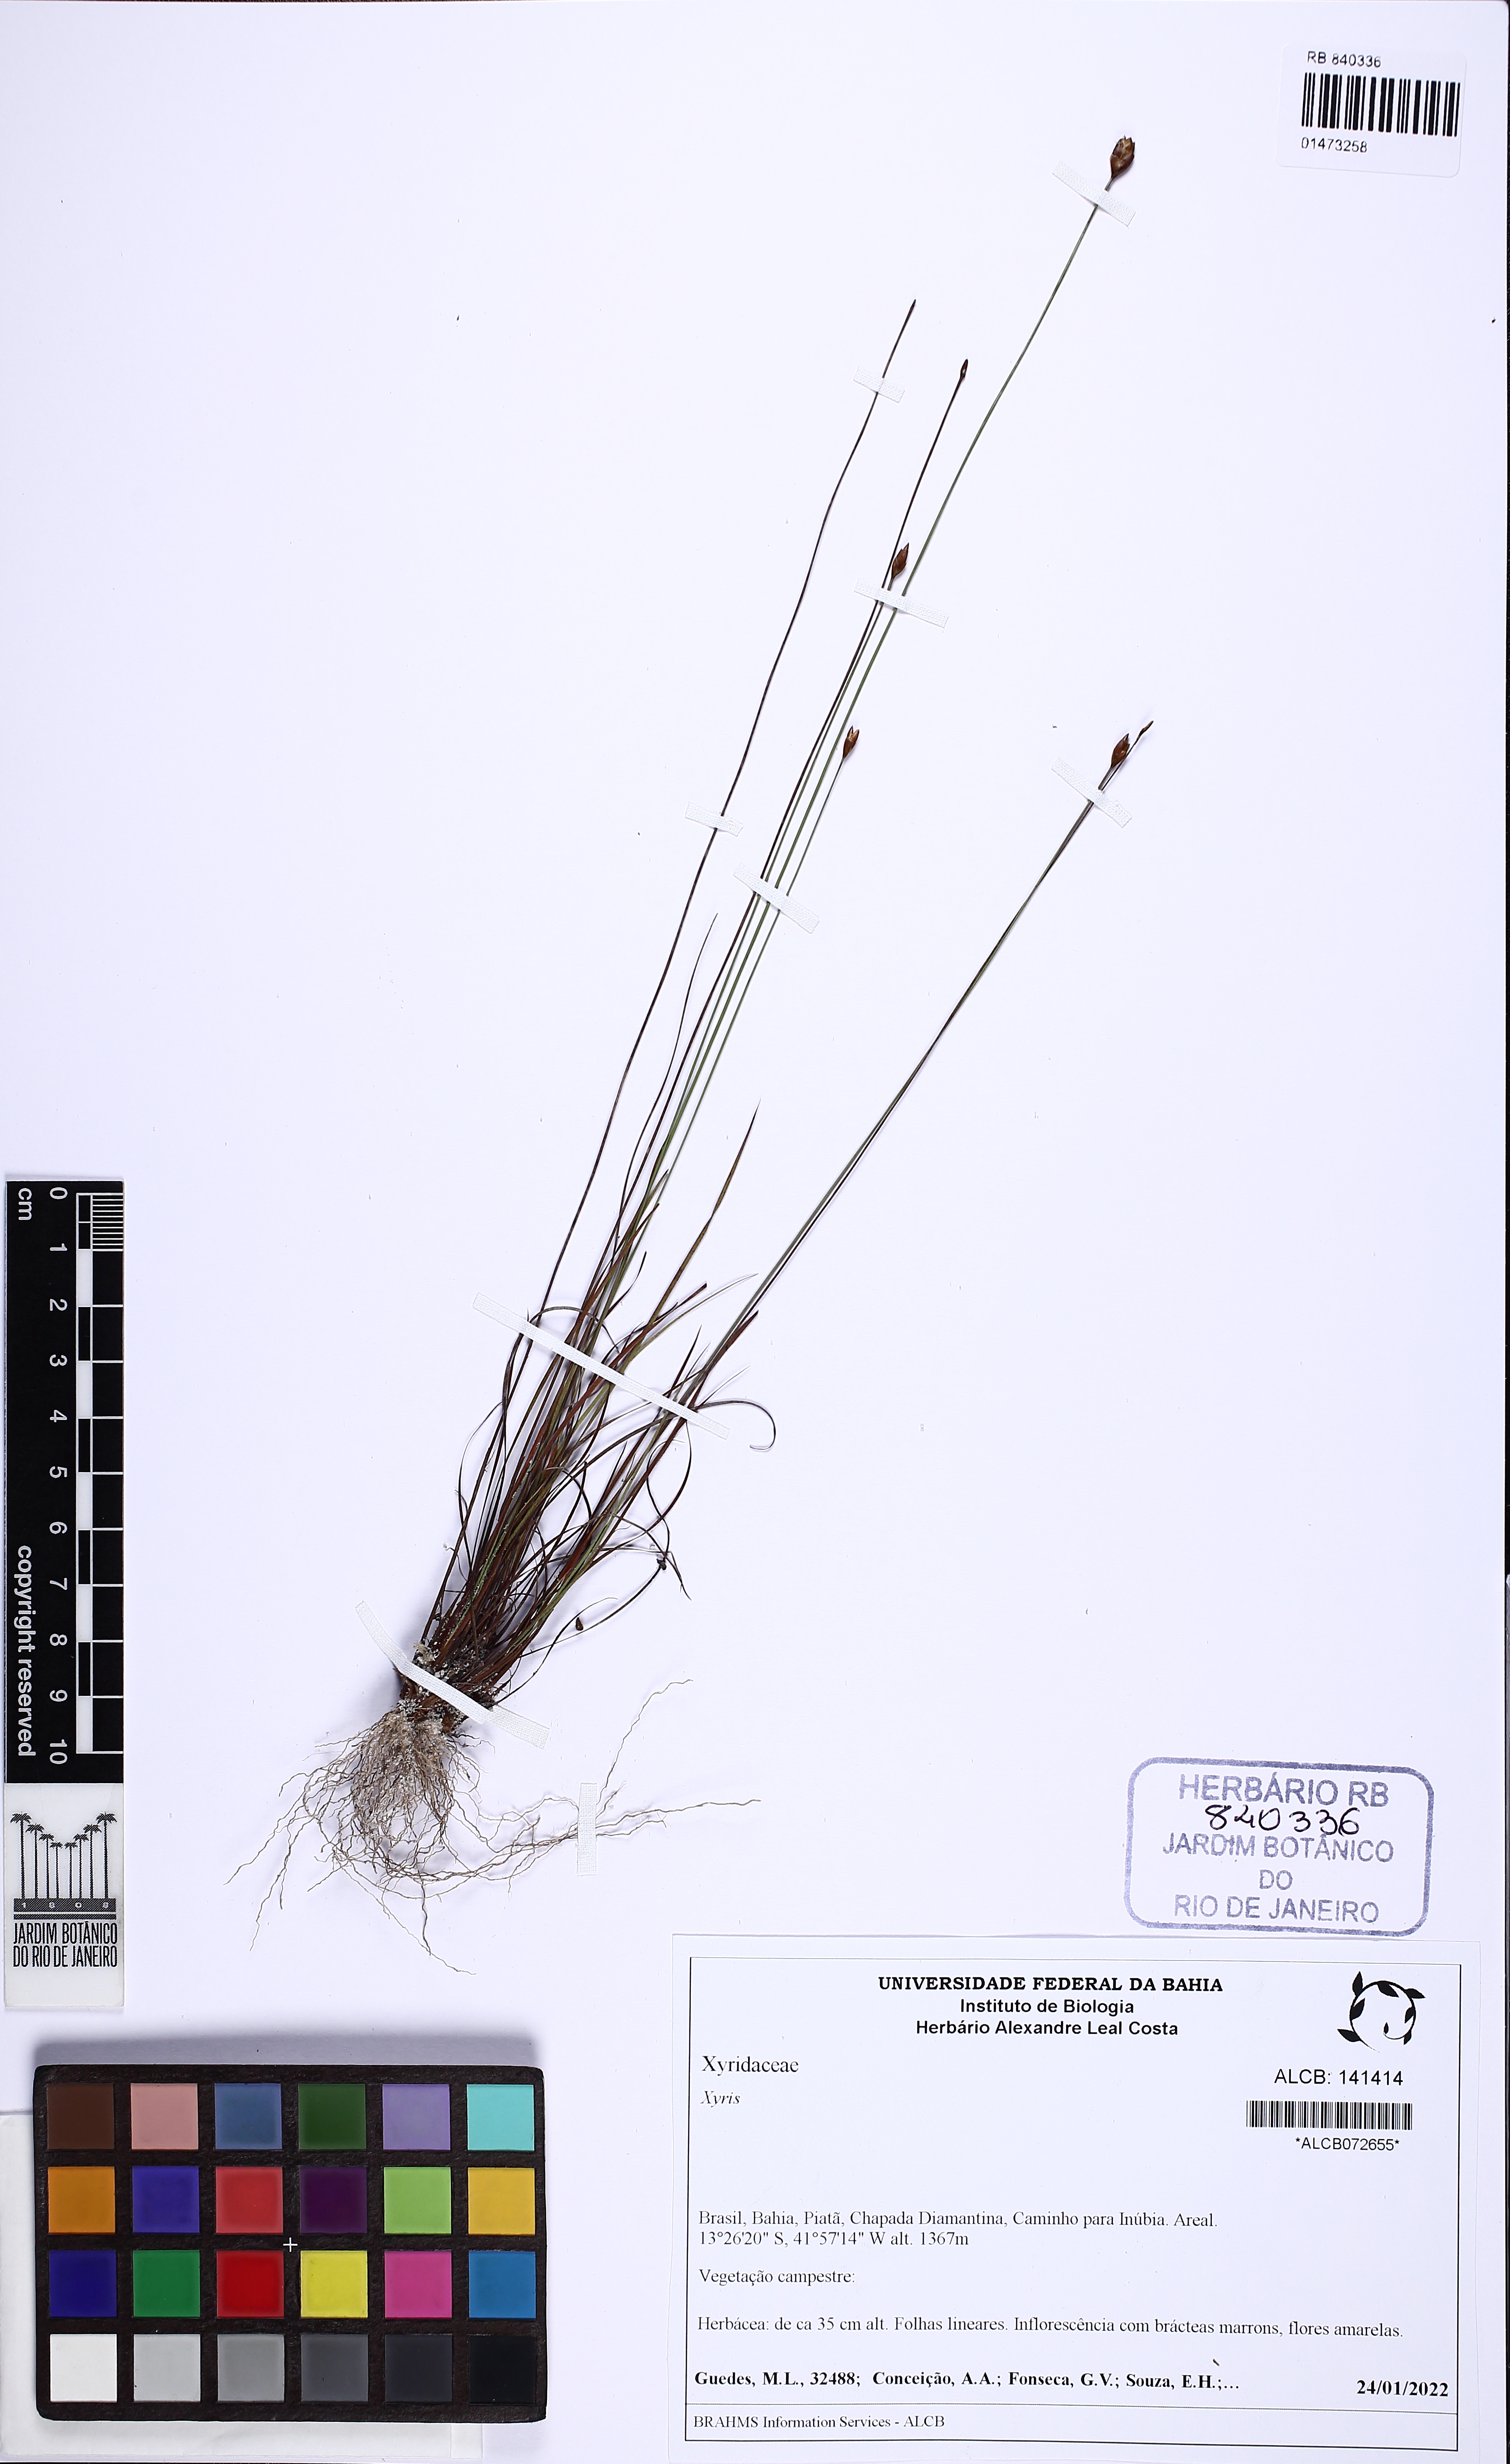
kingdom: Plantae
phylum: Tracheophyta
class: Liliopsida
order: Poales
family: Xyridaceae
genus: Xyris
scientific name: Xyris
